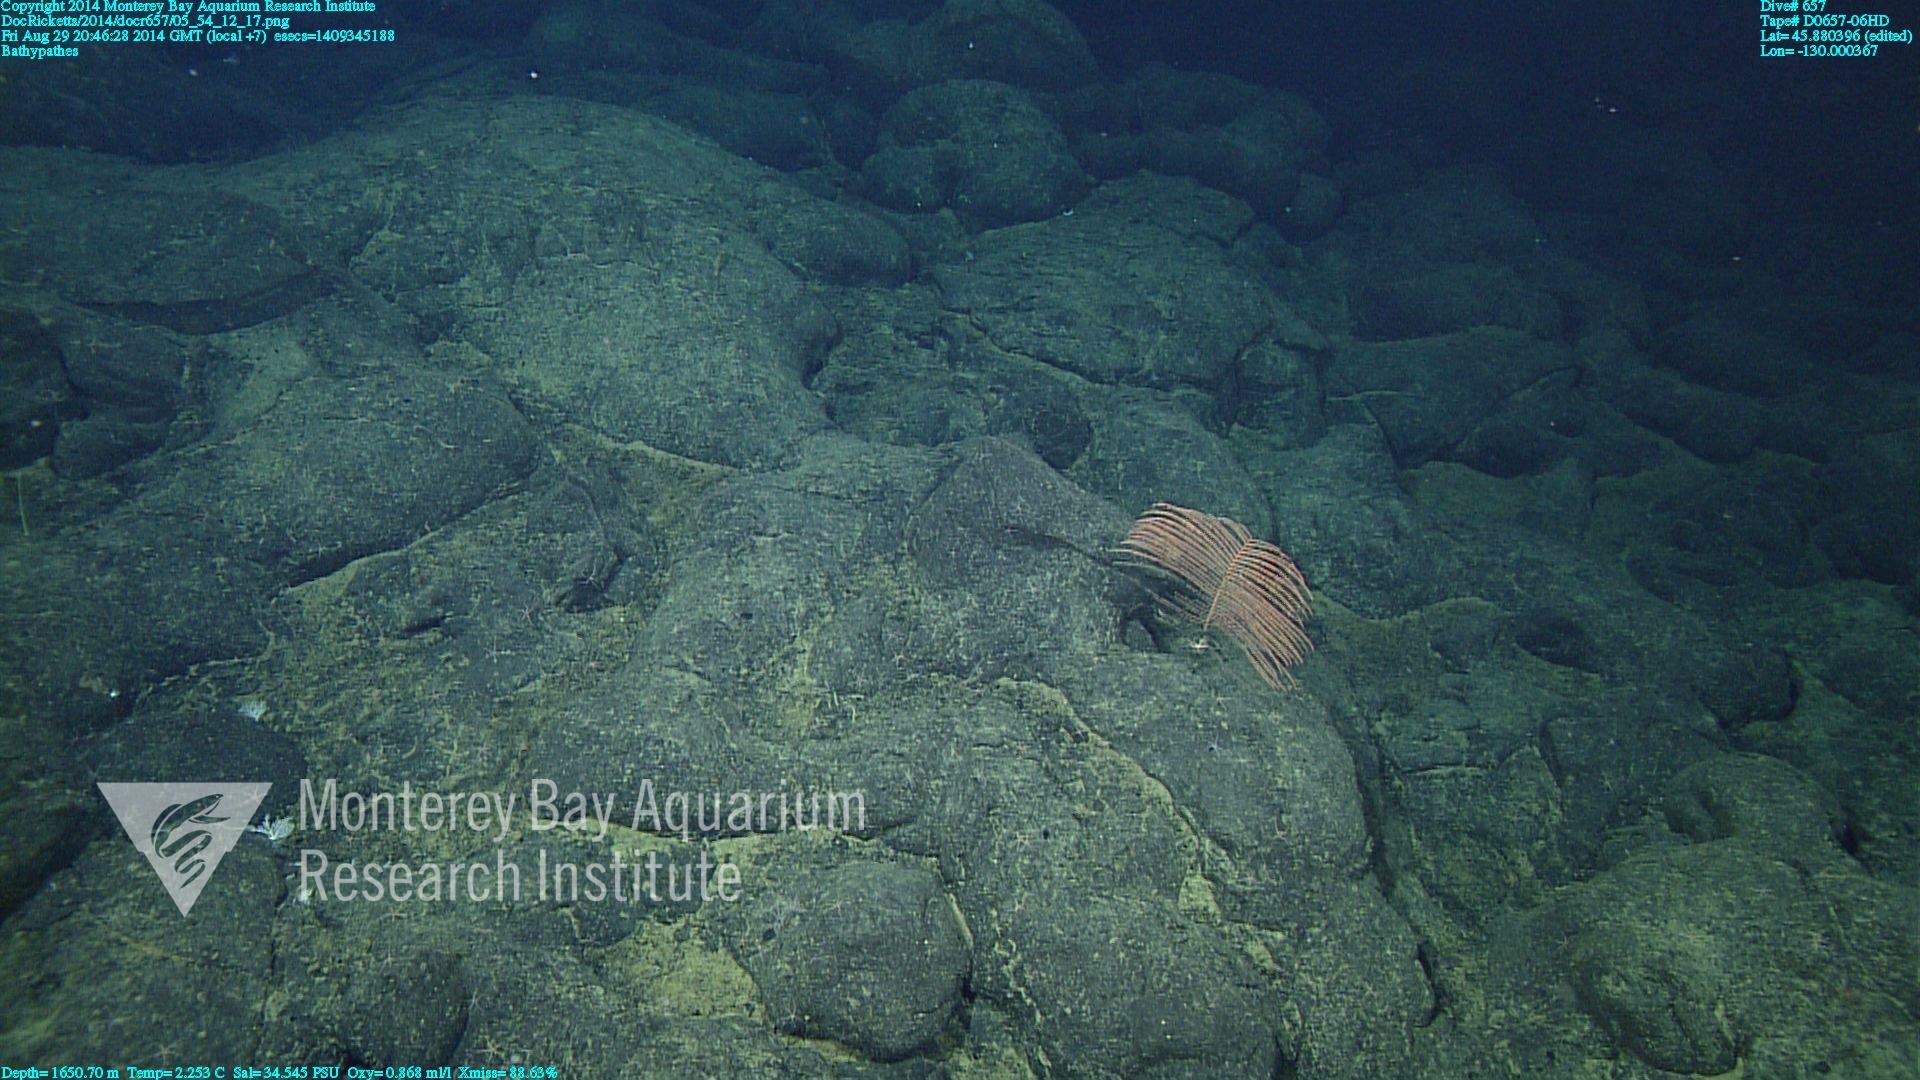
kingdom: Animalia
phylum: Cnidaria
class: Anthozoa
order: Antipatharia
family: Schizopathidae
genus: Bathypathes
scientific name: Bathypathes
